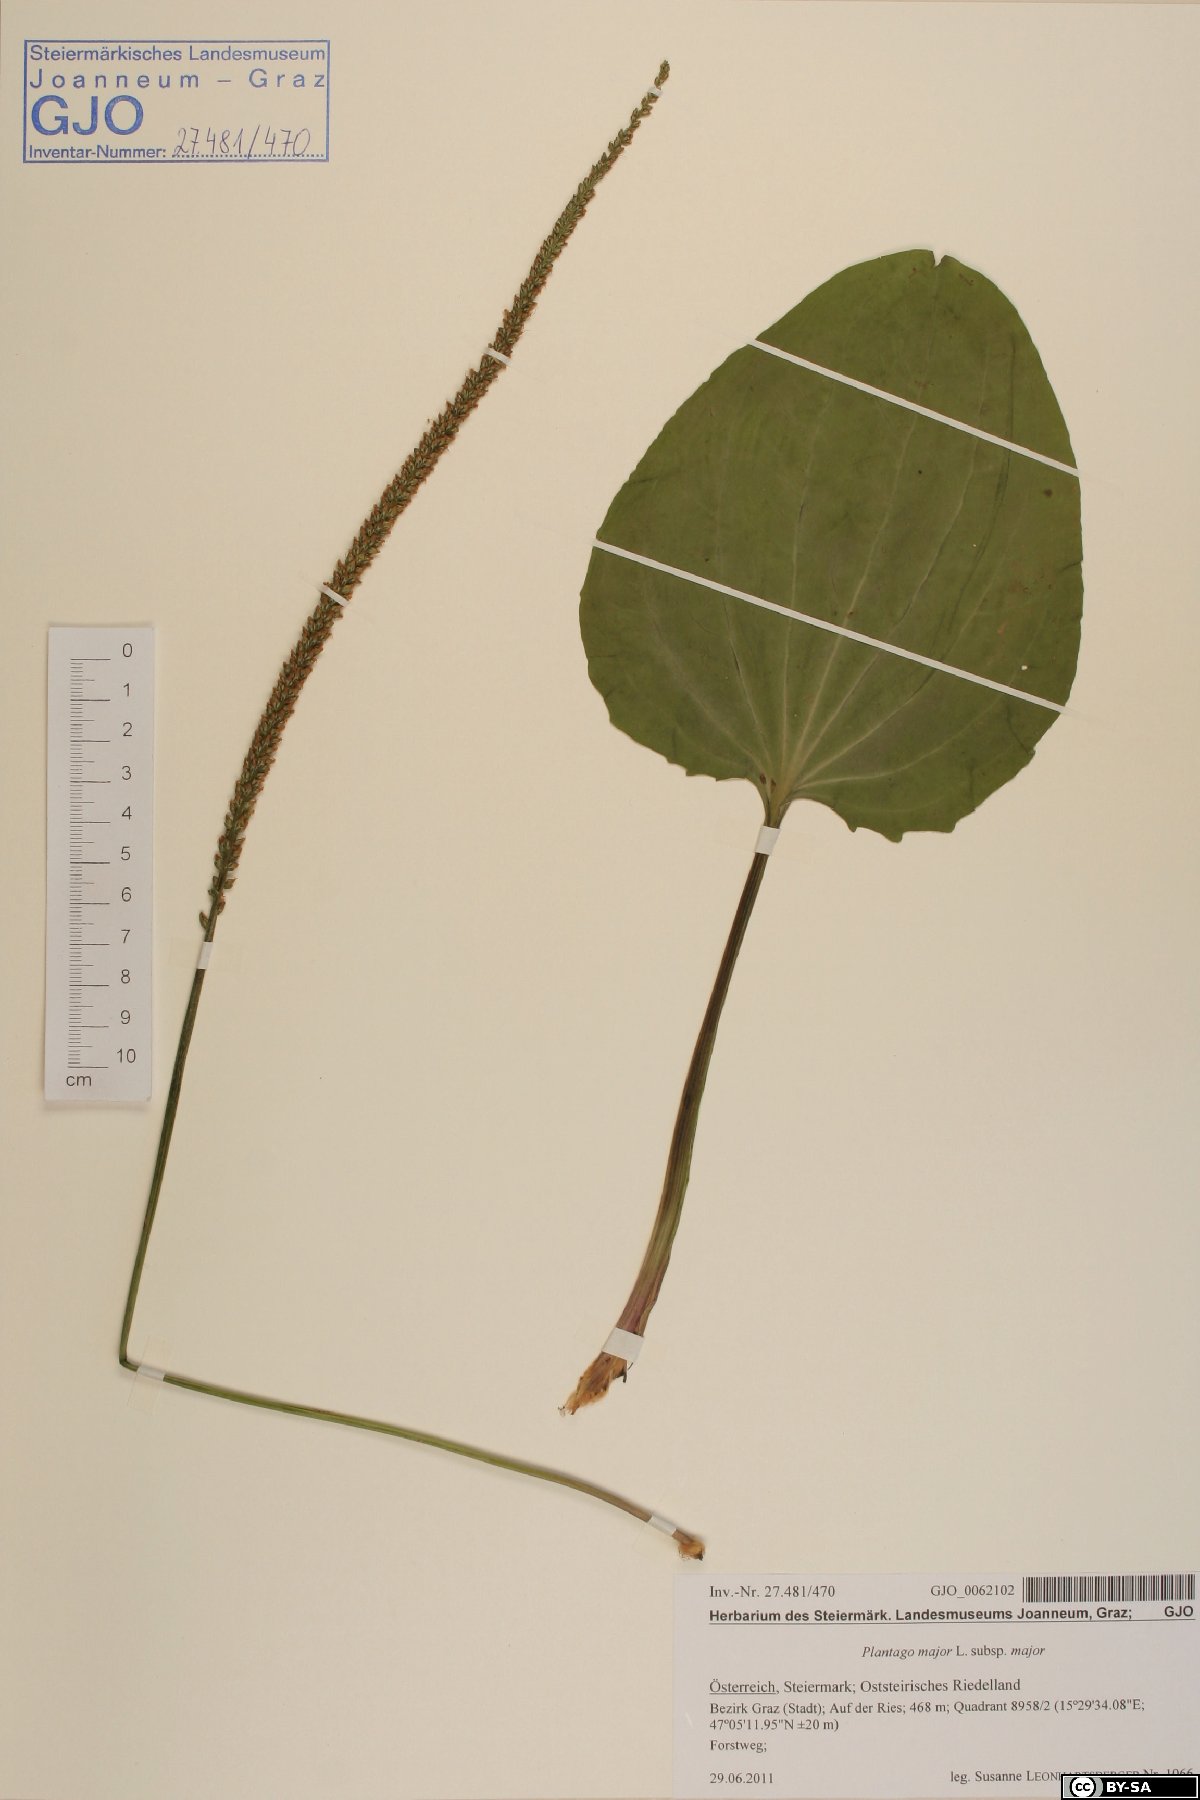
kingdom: Plantae
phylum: Tracheophyta
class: Magnoliopsida
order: Lamiales
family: Plantaginaceae
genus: Plantago
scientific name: Plantago major
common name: Common plantain
